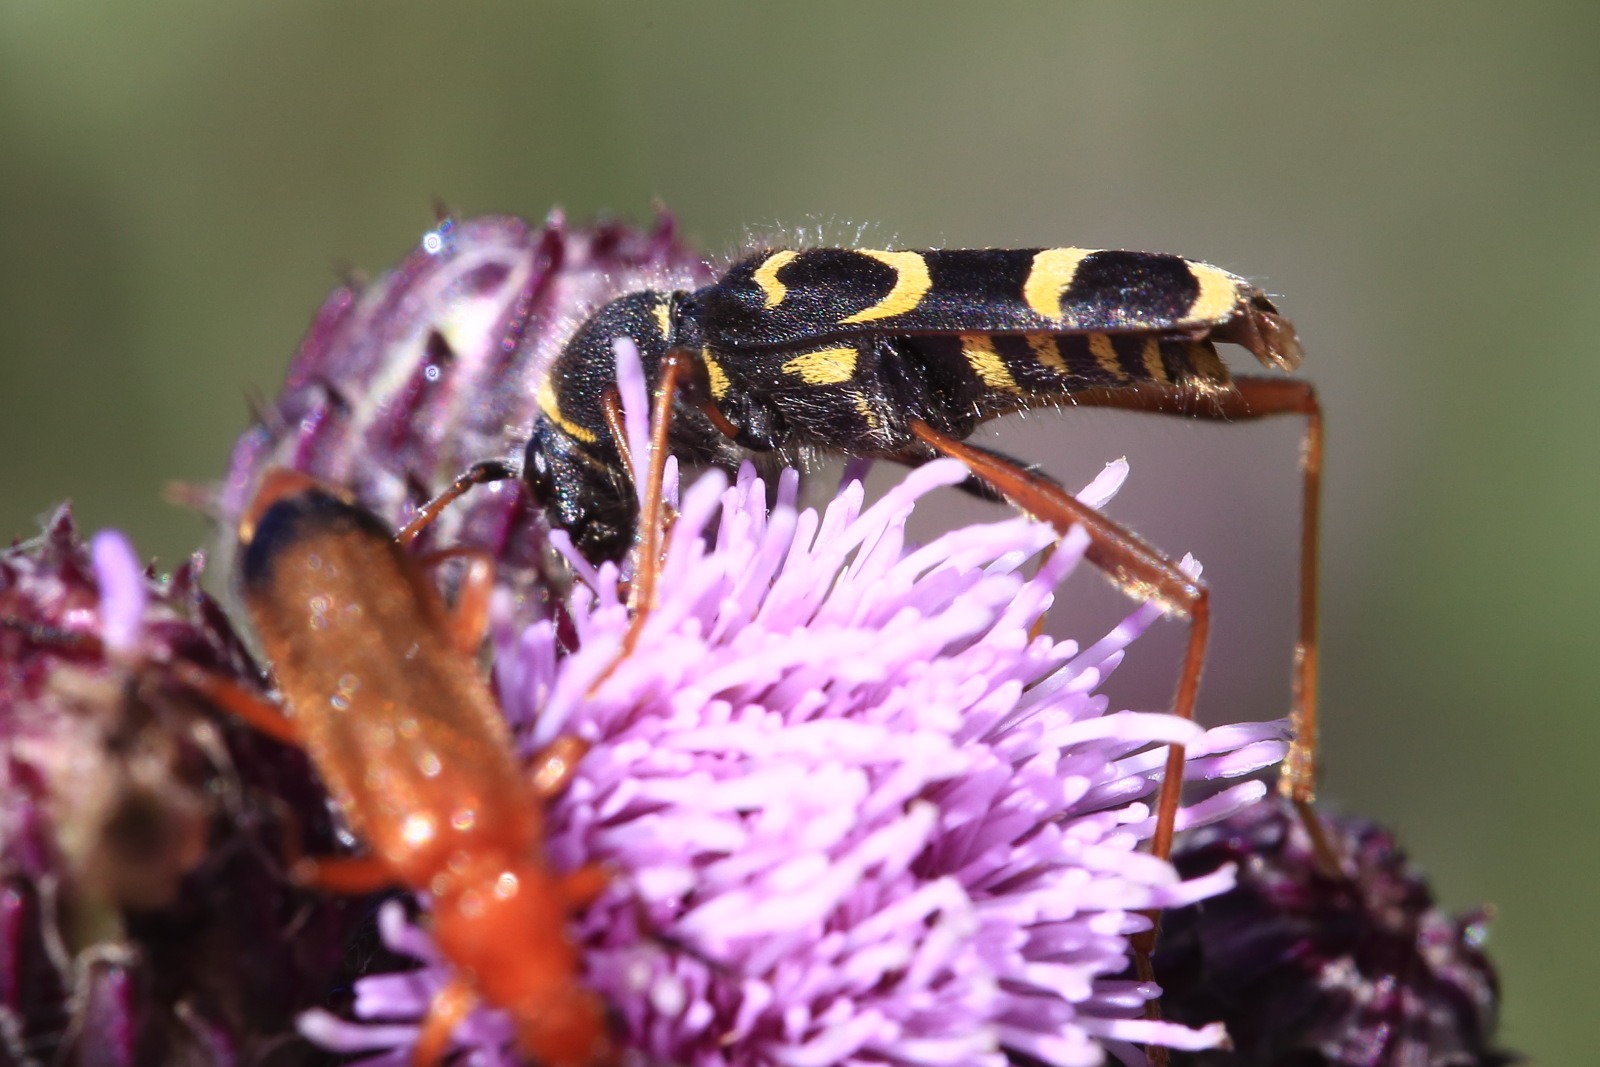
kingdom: Animalia
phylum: Arthropoda
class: Insecta
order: Coleoptera
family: Cerambycidae
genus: Clytus
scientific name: Clytus arietis
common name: Lille hvepsebuk
